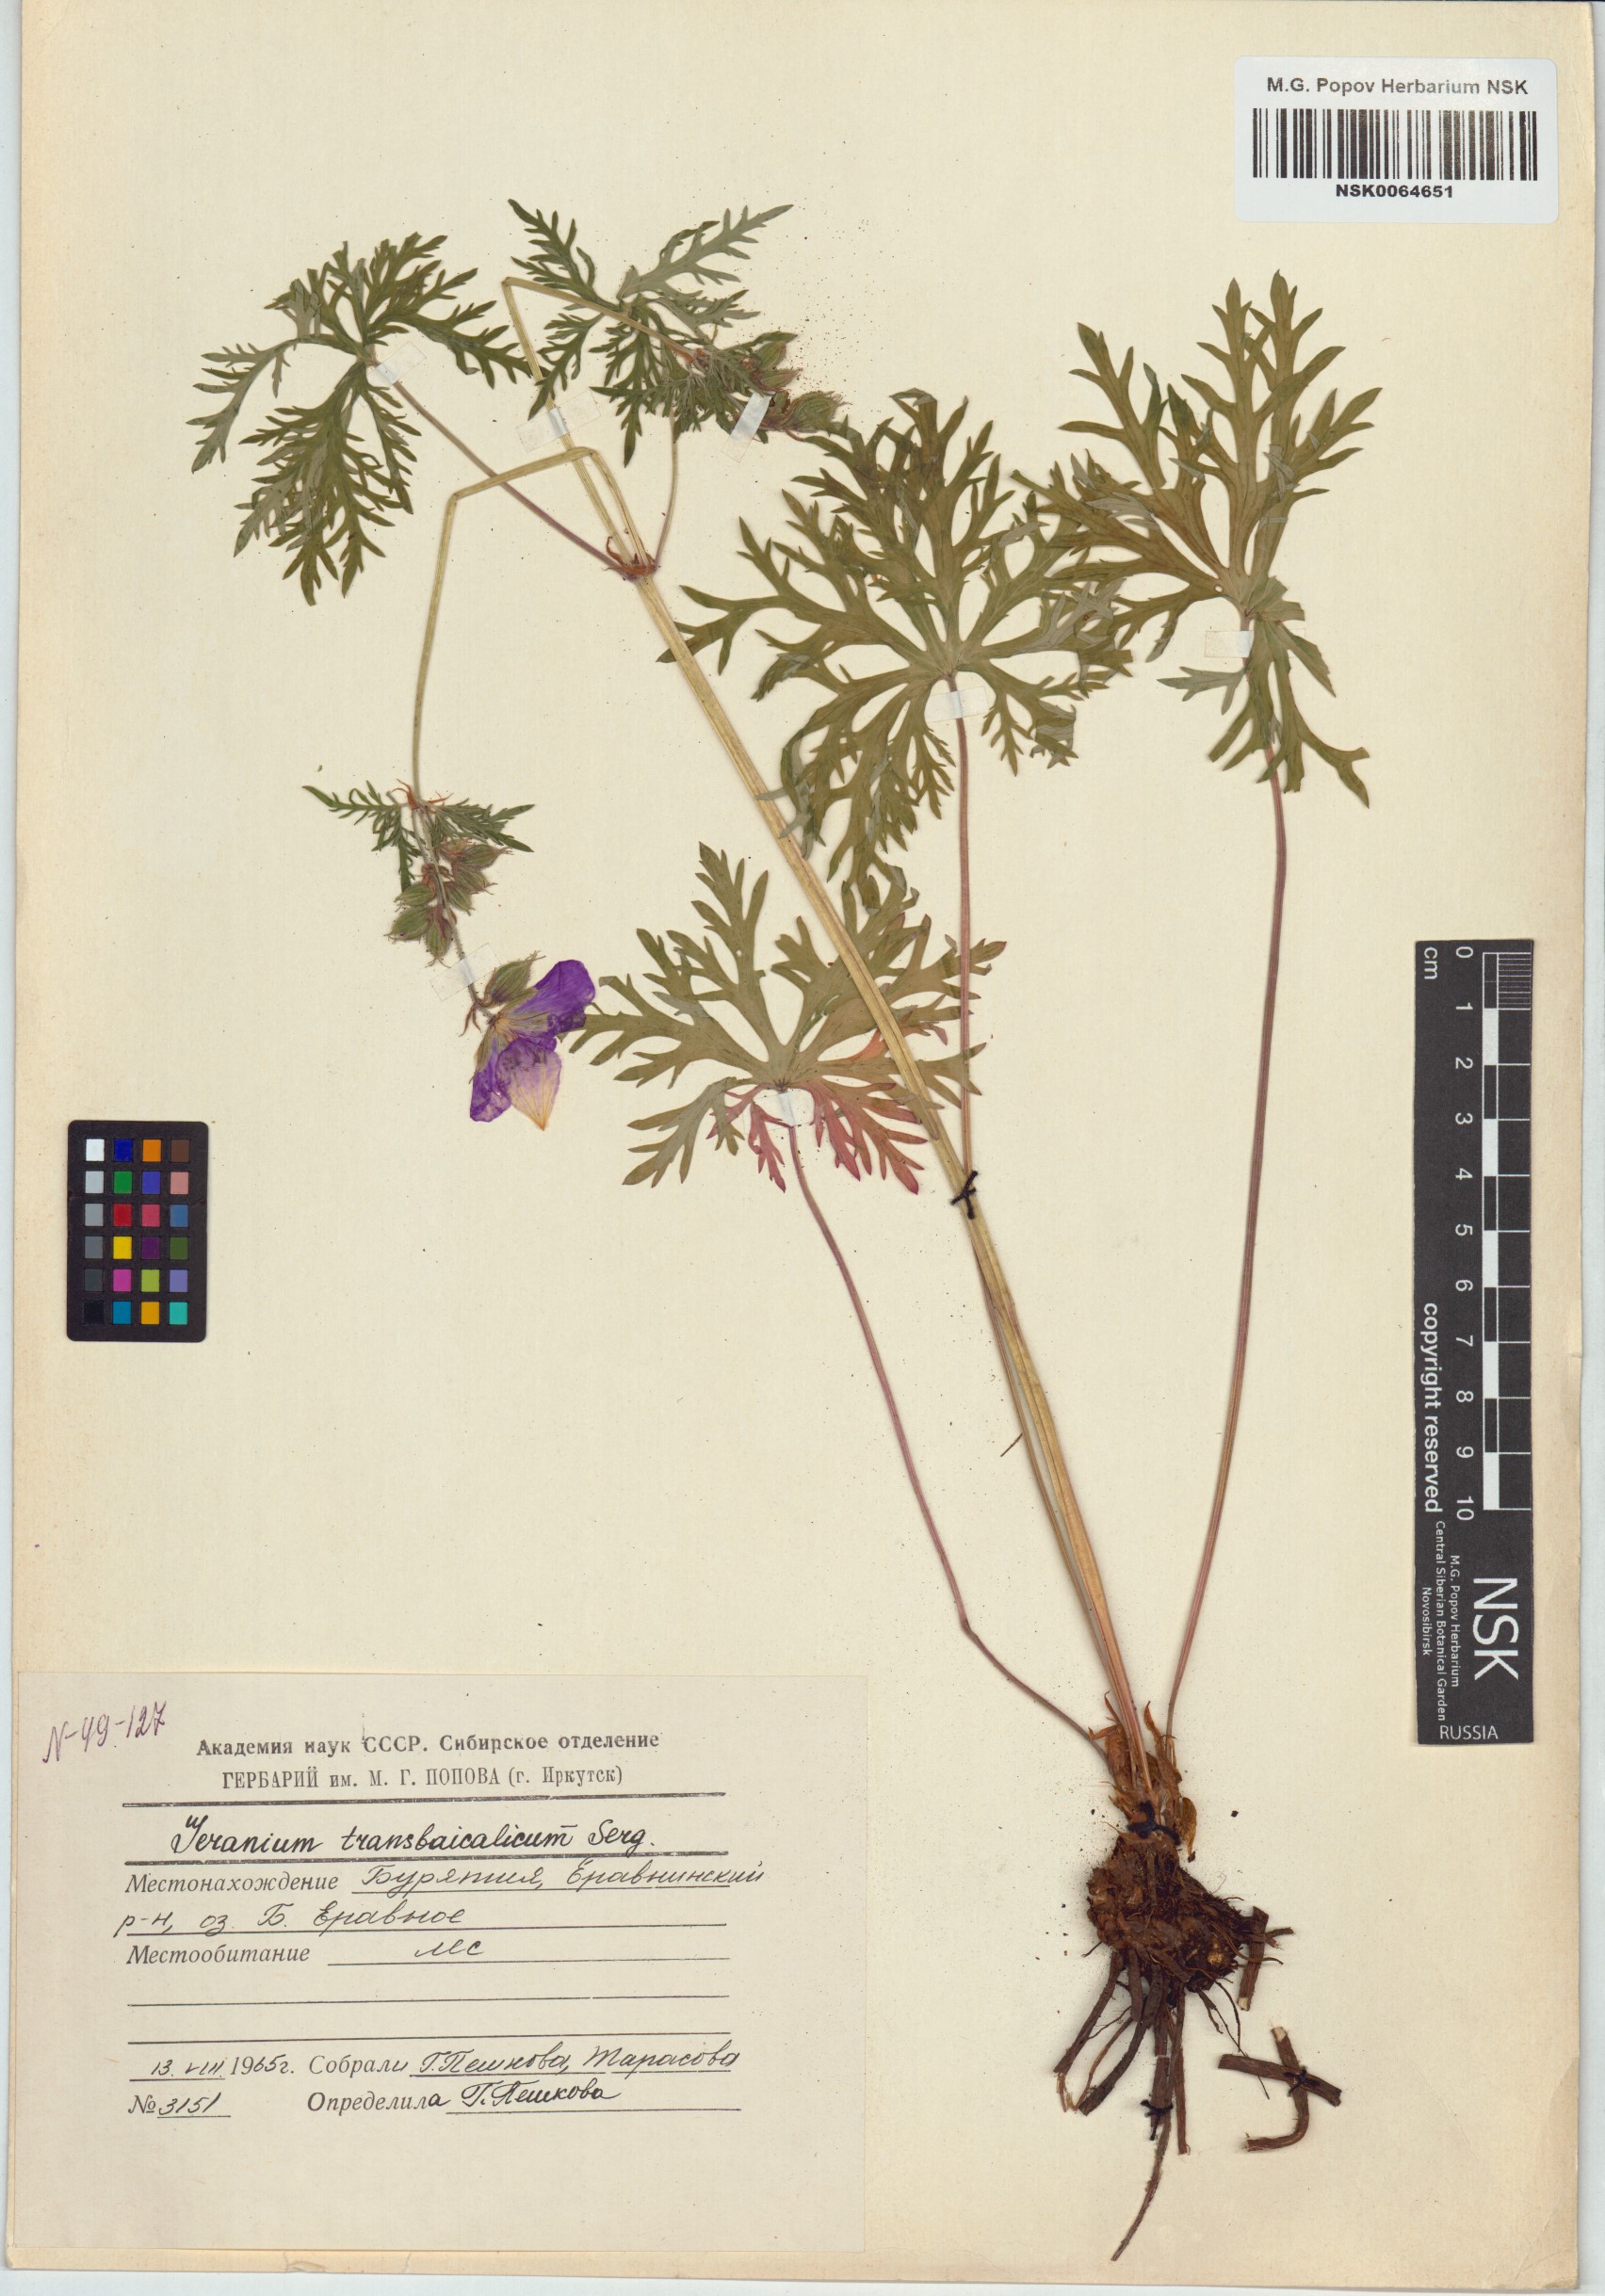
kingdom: Plantae
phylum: Tracheophyta
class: Magnoliopsida
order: Geraniales
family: Geraniaceae
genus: Geranium
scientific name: Geranium pratense
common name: Meadow crane's-bill
